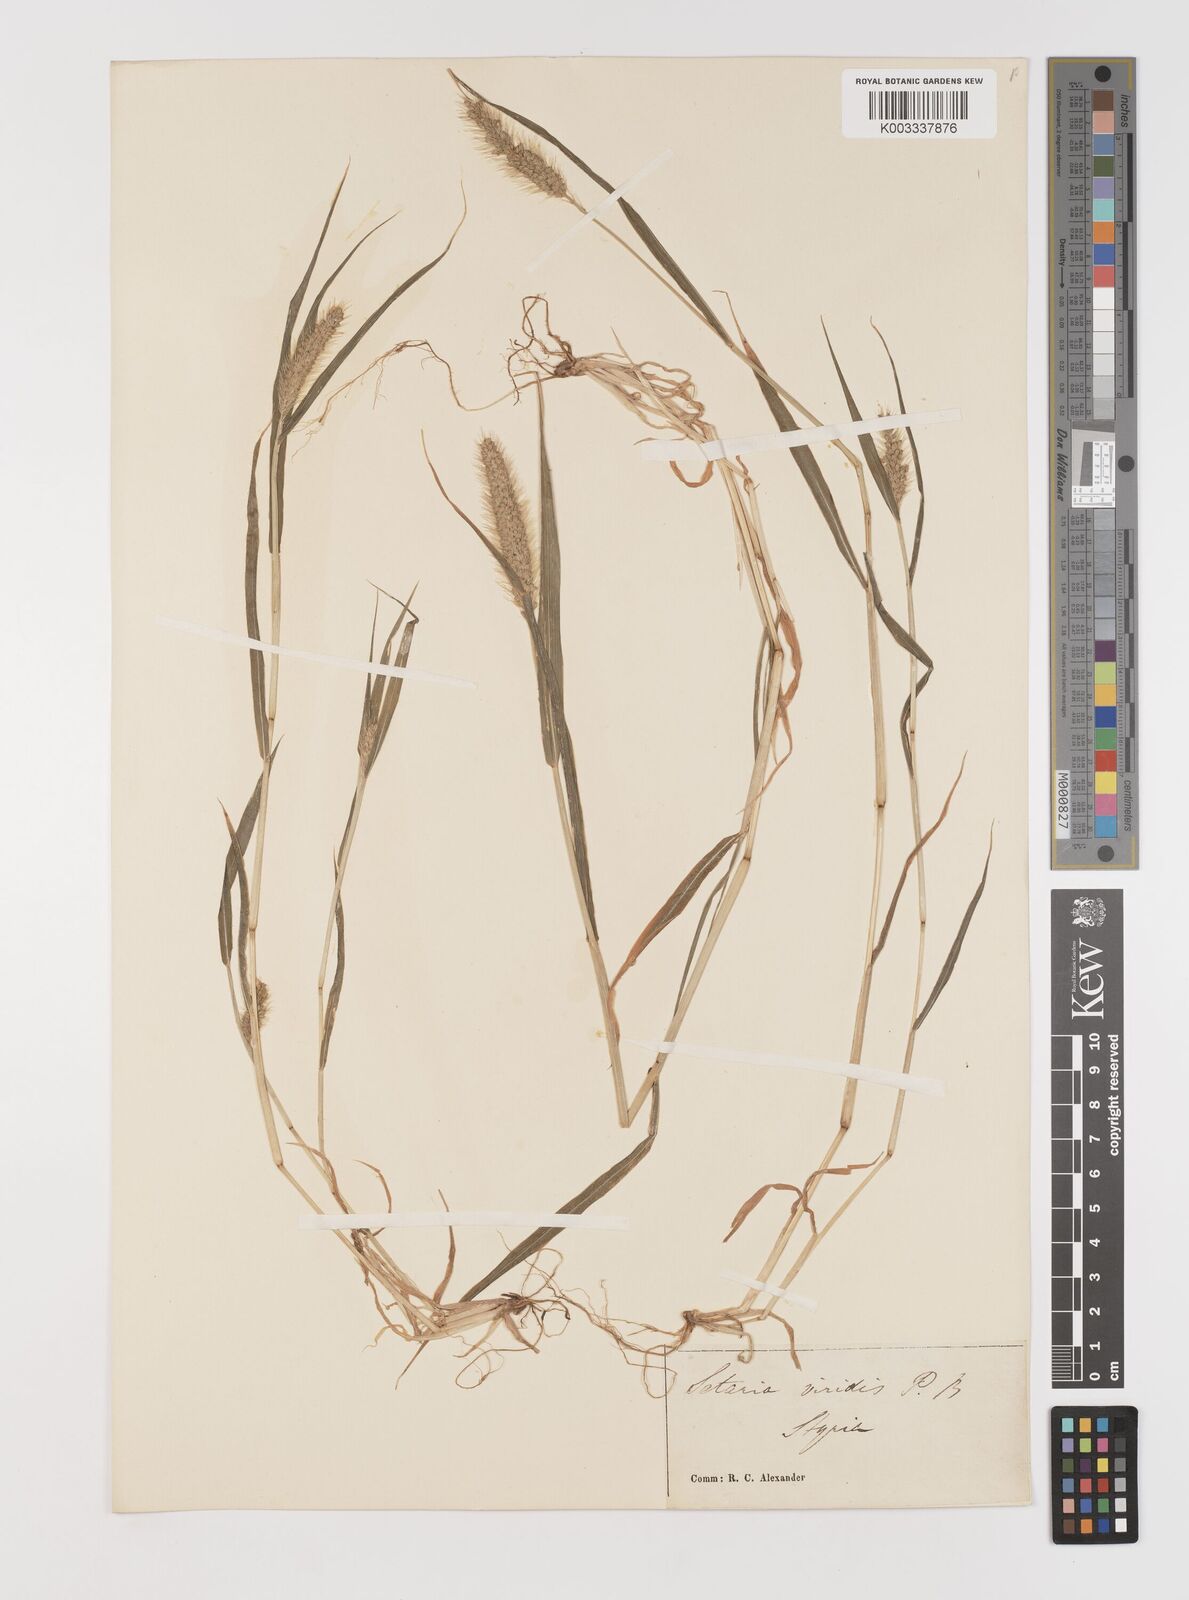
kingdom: Plantae
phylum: Tracheophyta
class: Liliopsida
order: Poales
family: Poaceae
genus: Setaria
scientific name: Setaria viridis
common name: Green bristlegrass
